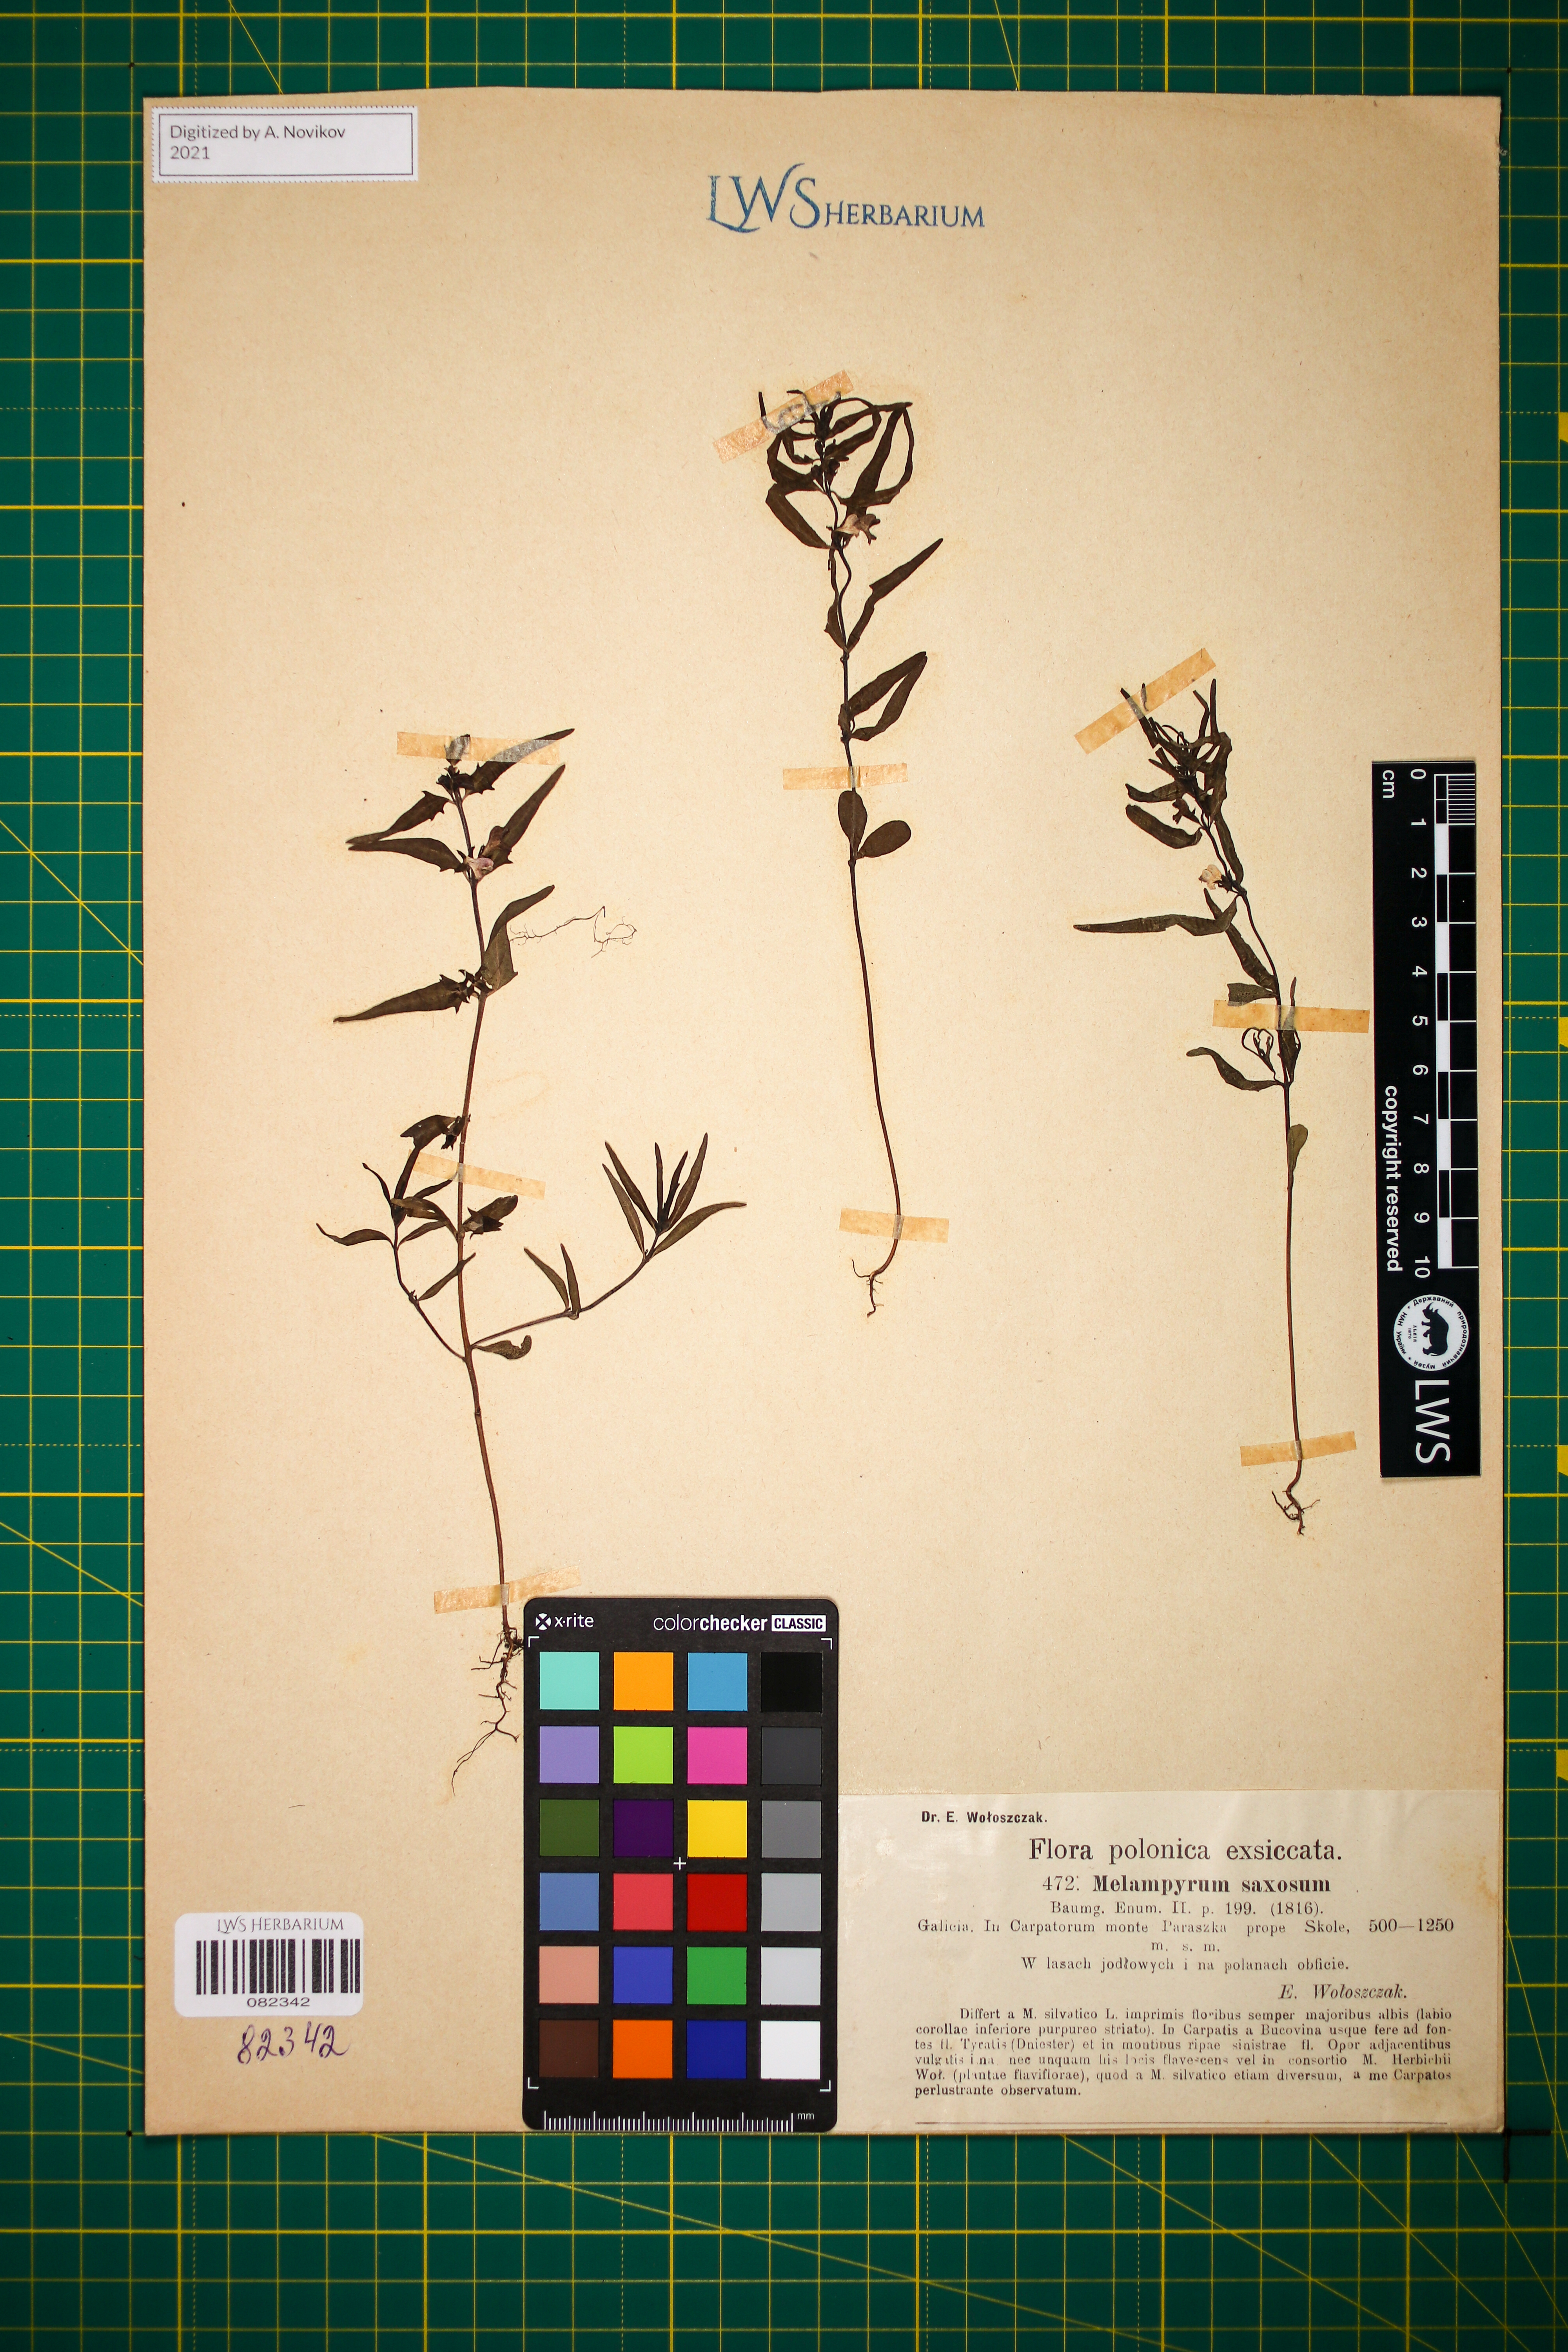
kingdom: Plantae
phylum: Tracheophyta
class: Magnoliopsida
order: Lamiales
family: Orobanchaceae
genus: Melampyrum
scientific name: Melampyrum saxosum
